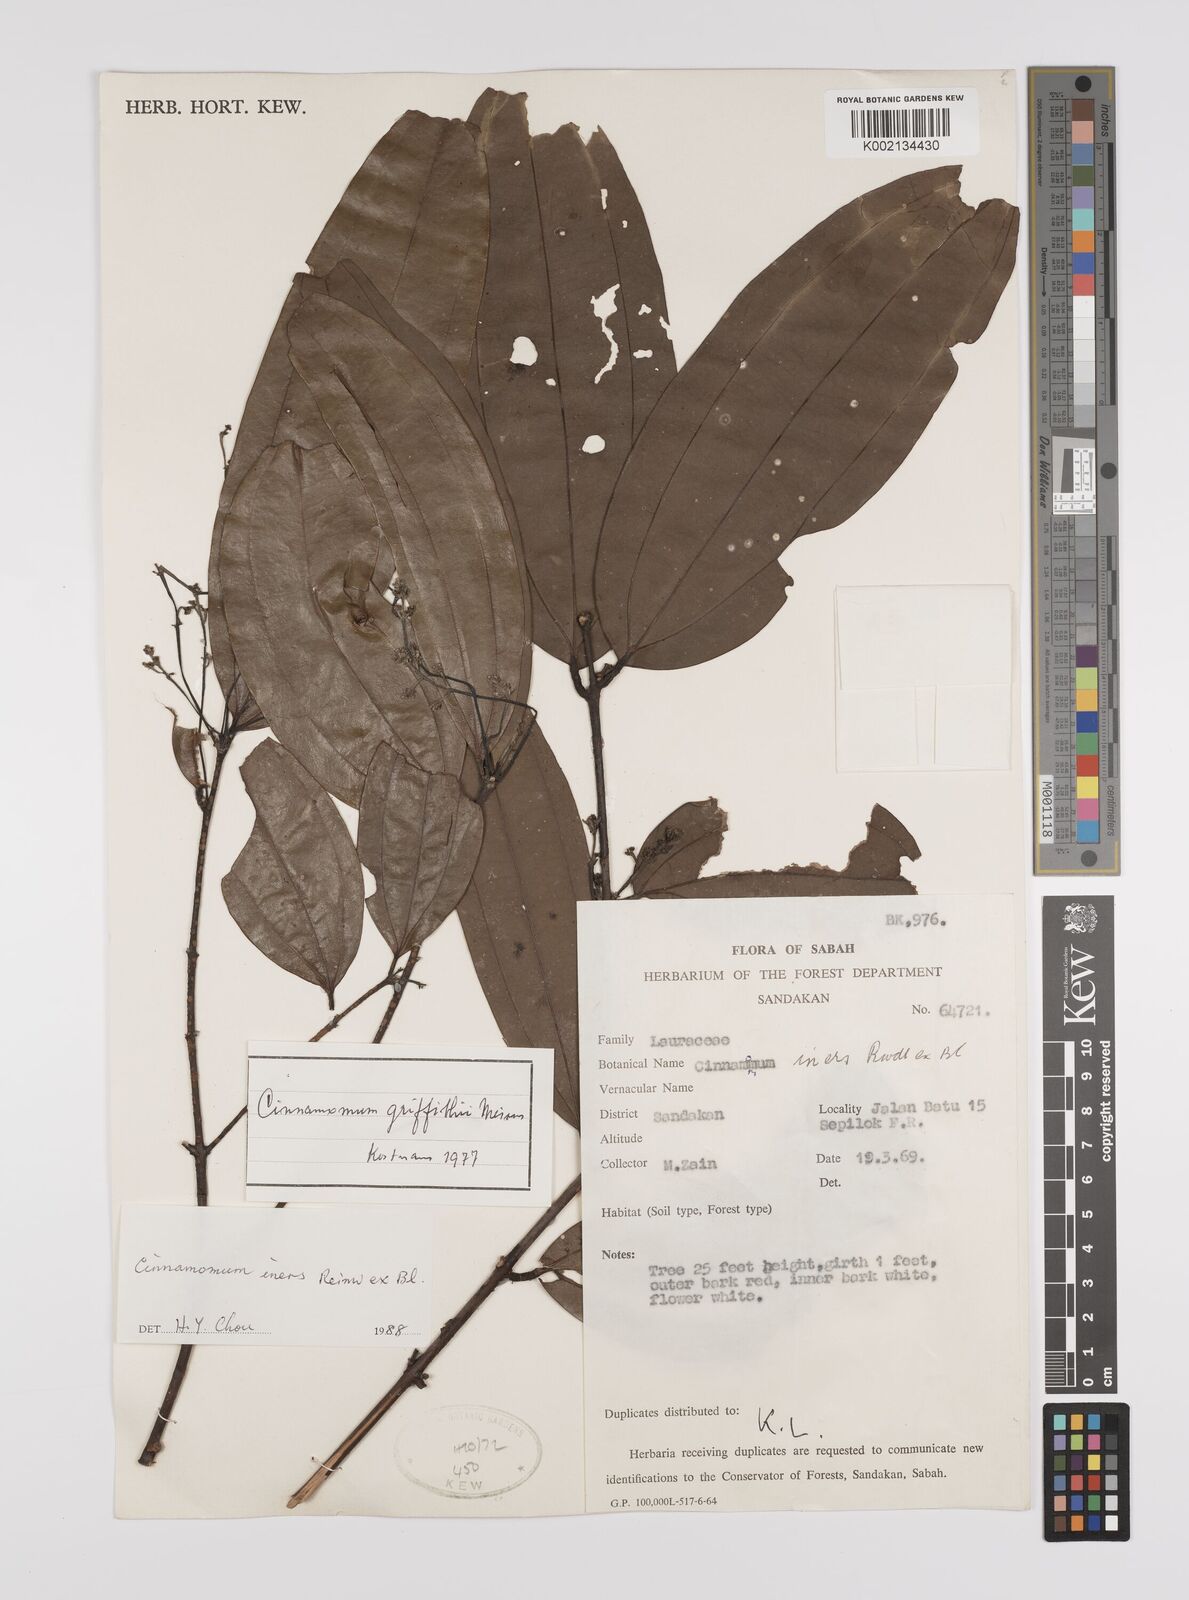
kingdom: Plantae
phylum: Tracheophyta
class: Magnoliopsida
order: Laurales
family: Lauraceae
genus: Cinnamomum
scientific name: Cinnamomum iners
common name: Wild cinnamon
